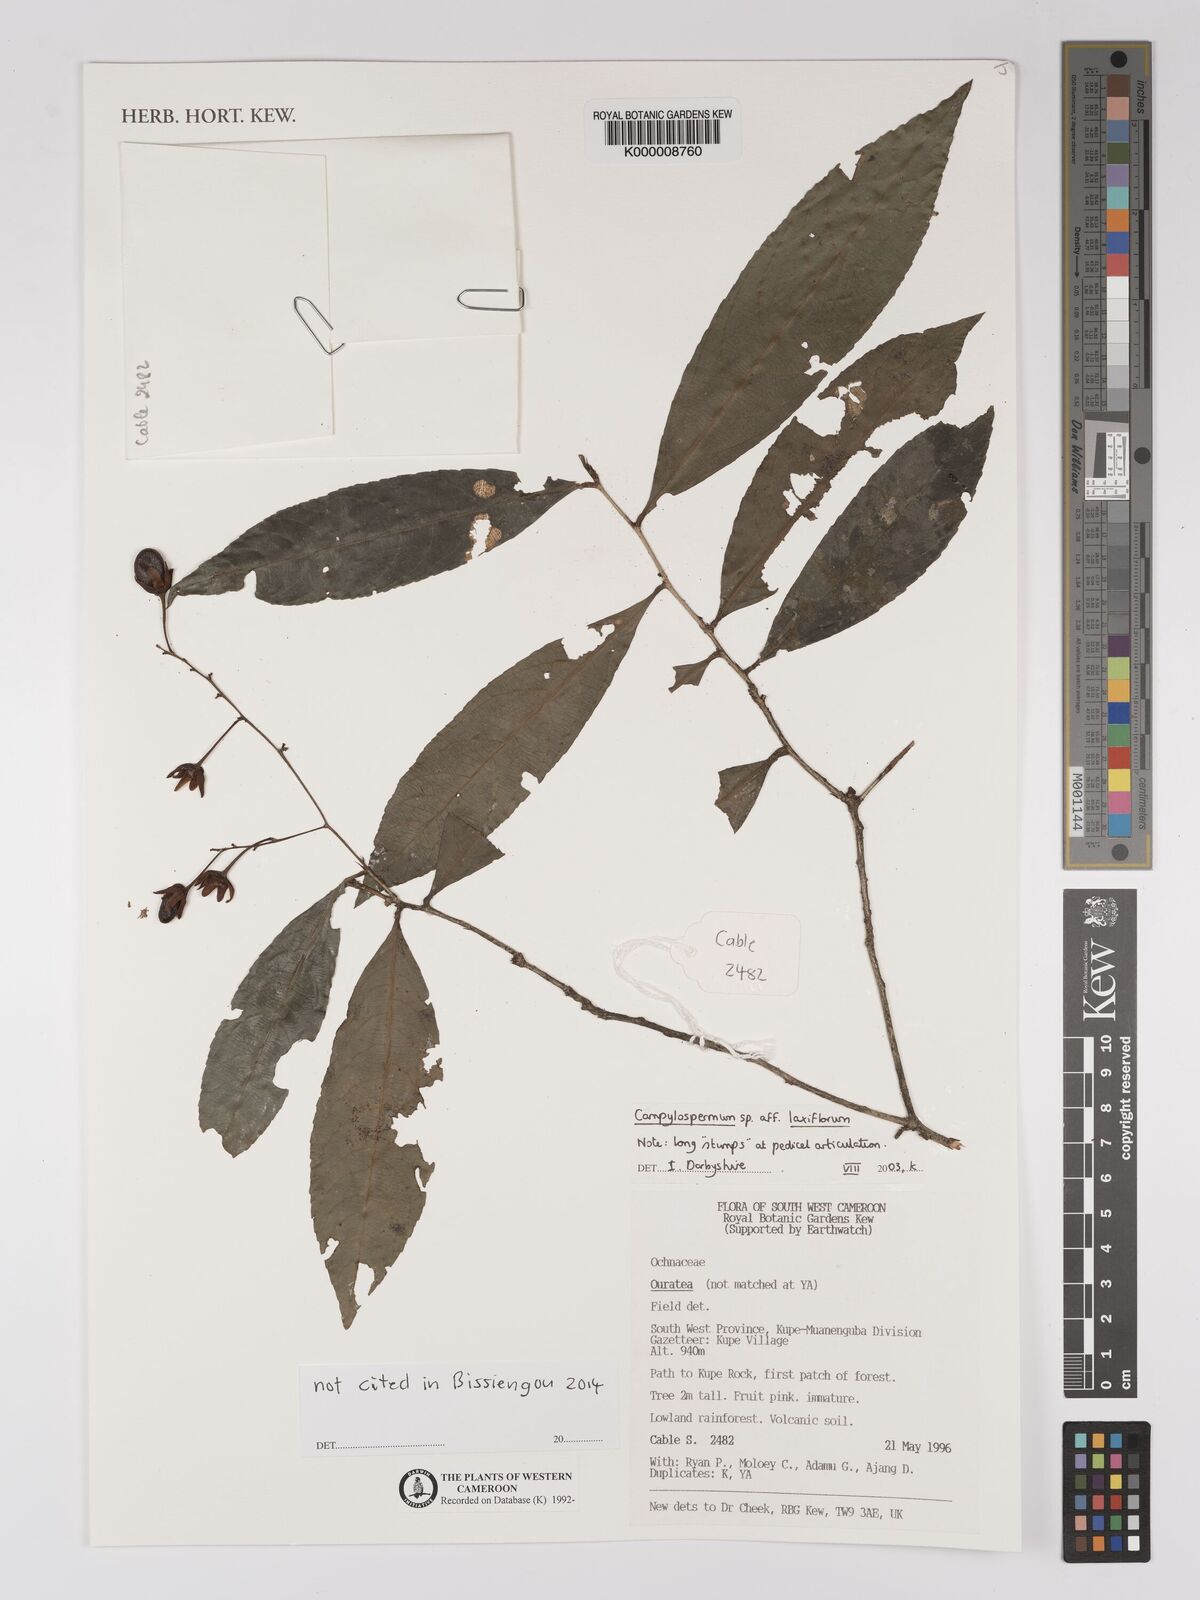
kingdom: Plantae
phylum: Tracheophyta
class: Magnoliopsida
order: Malpighiales
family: Ochnaceae
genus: Campylospermum
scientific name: Campylospermum laxiflorum
